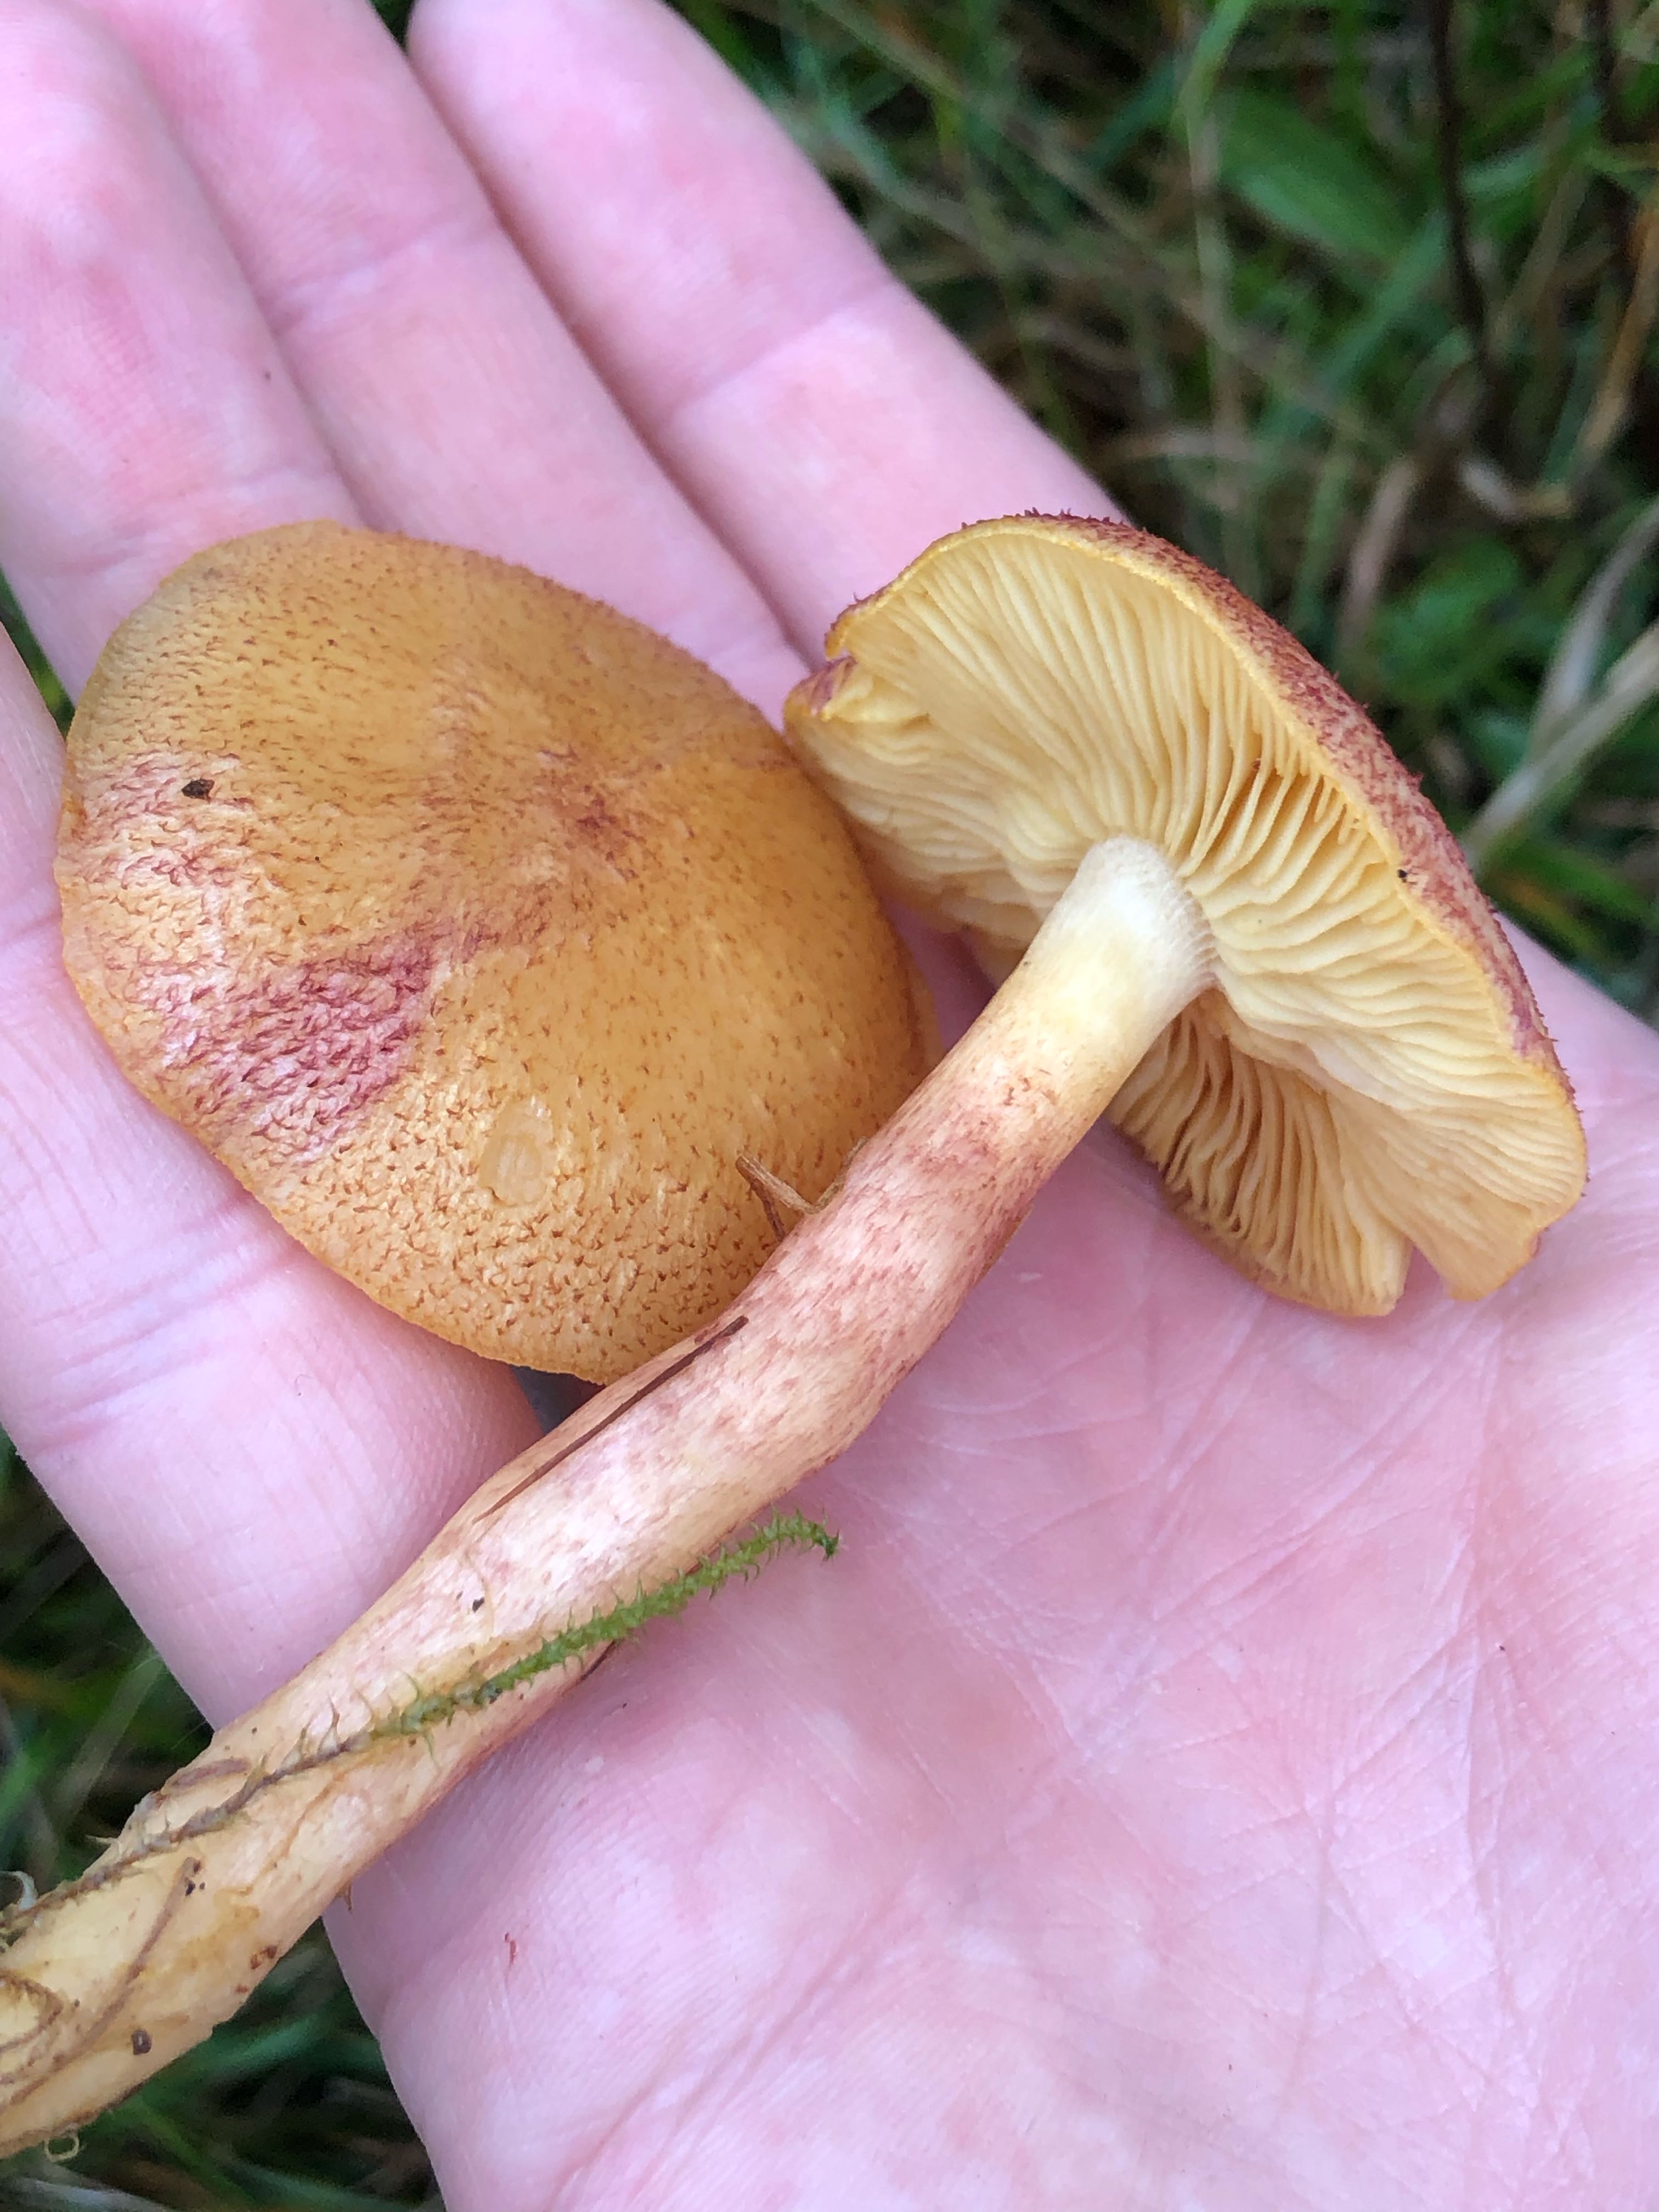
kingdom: Fungi
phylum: Basidiomycota
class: Agaricomycetes
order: Agaricales
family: Tricholomataceae
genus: Tricholomopsis
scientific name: Tricholomopsis rutilans
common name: purpur-væbnerhat
